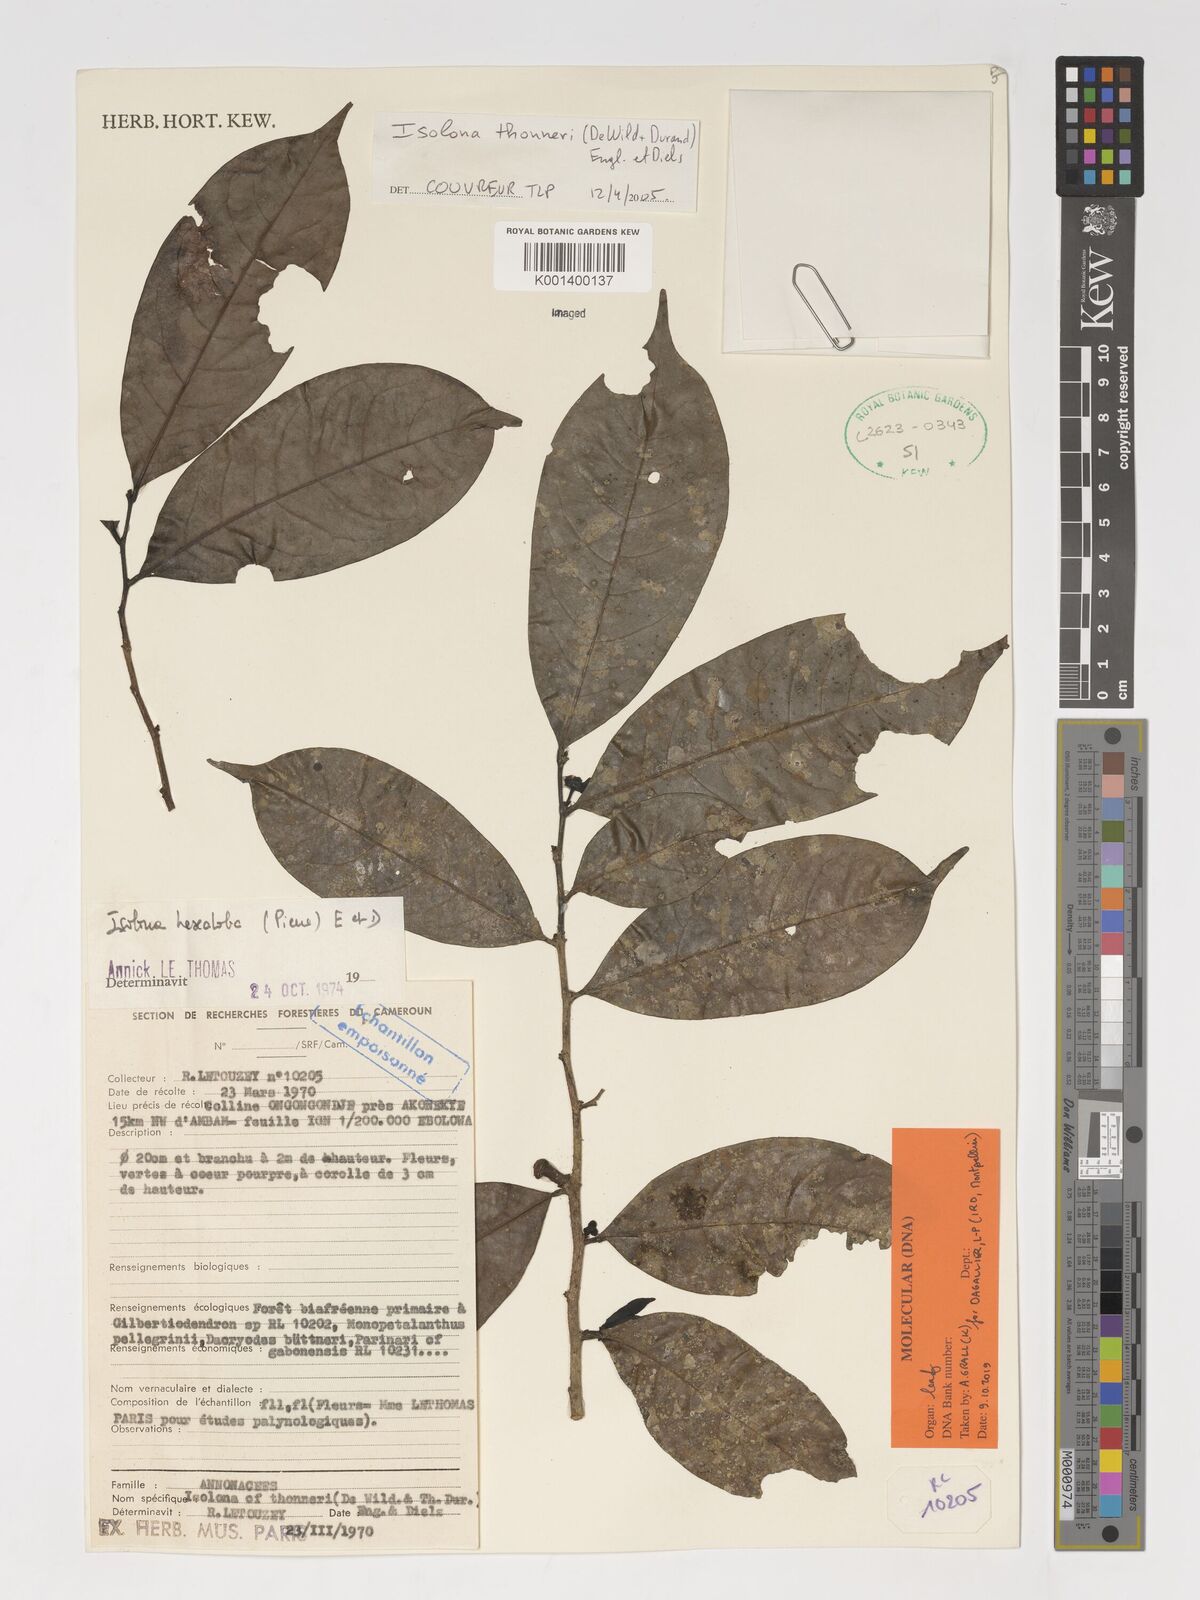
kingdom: Plantae
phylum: Tracheophyta
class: Magnoliopsida
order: Magnoliales
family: Annonaceae
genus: Isolona
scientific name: Isolona thonneri
